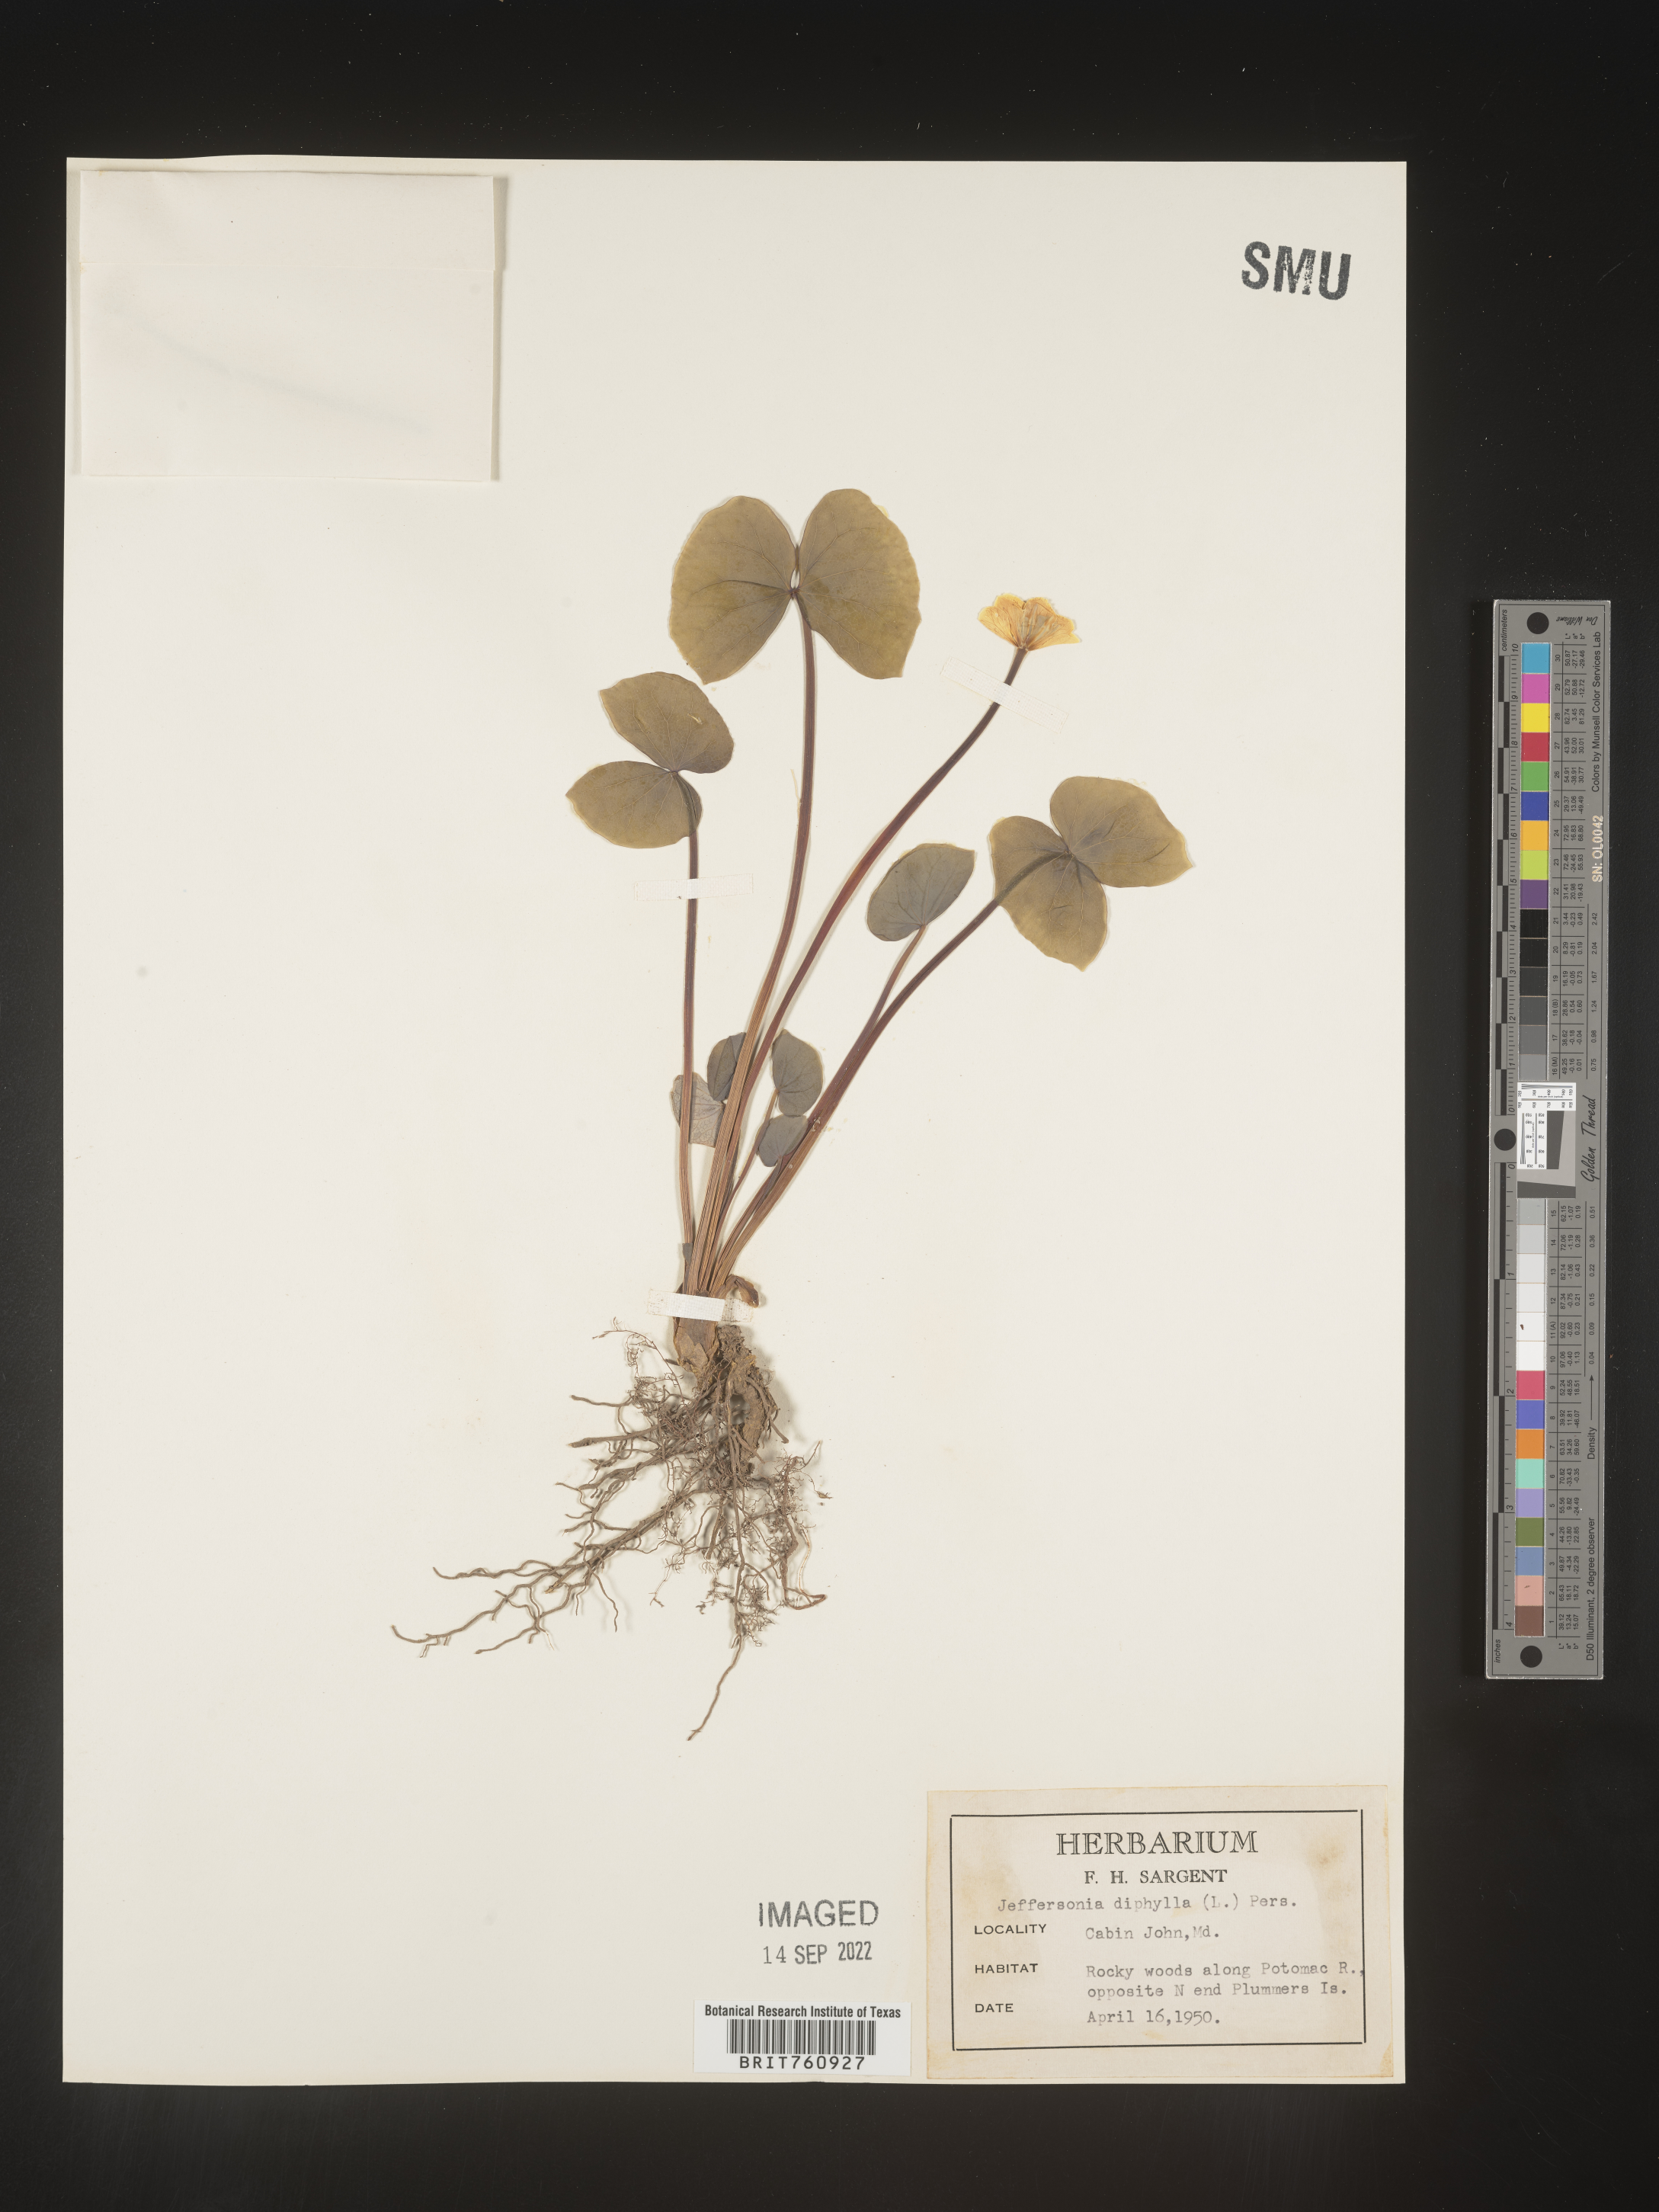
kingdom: Plantae
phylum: Tracheophyta
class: Magnoliopsida
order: Ranunculales
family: Berberidaceae
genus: Jeffersonia
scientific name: Jeffersonia
